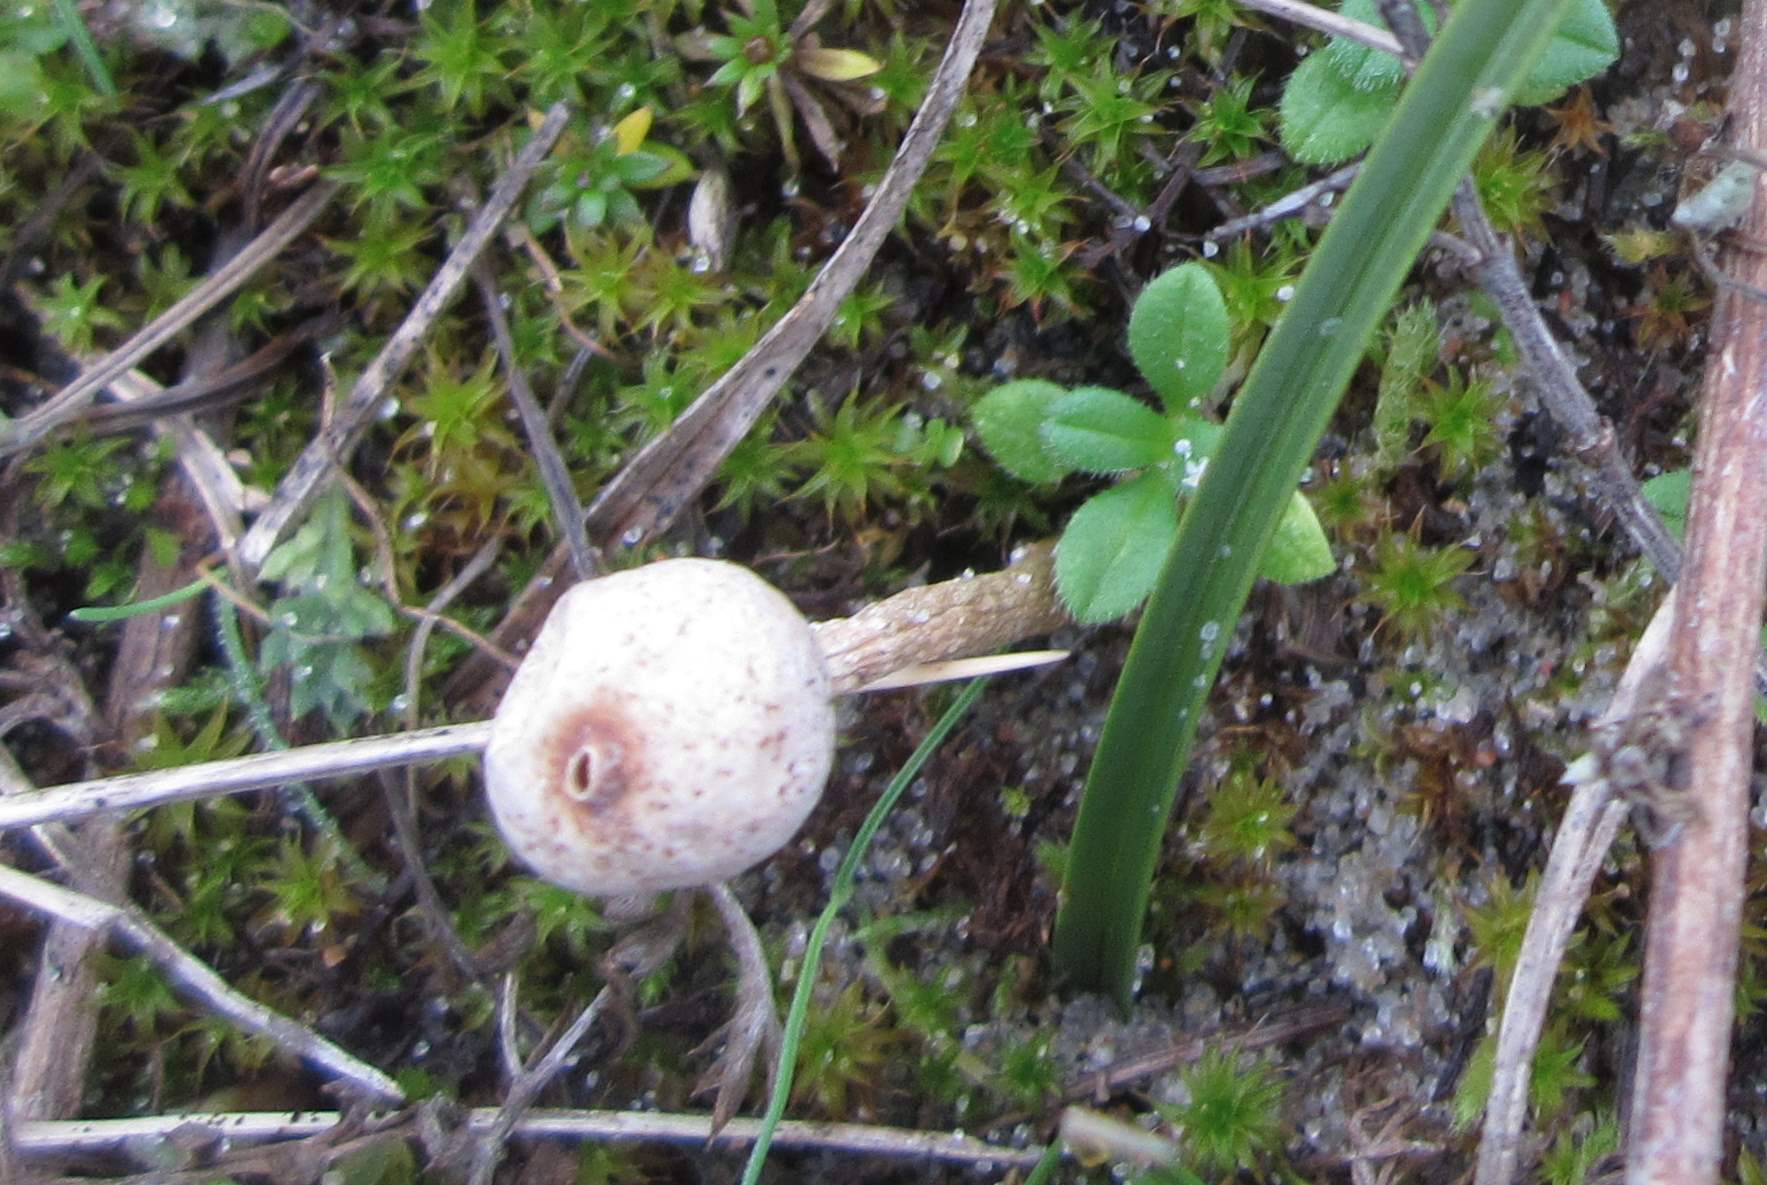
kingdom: Fungi
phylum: Basidiomycota
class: Agaricomycetes
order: Agaricales
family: Agaricaceae
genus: Tulostoma
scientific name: Tulostoma brumale
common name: vinter-stilkbovist
